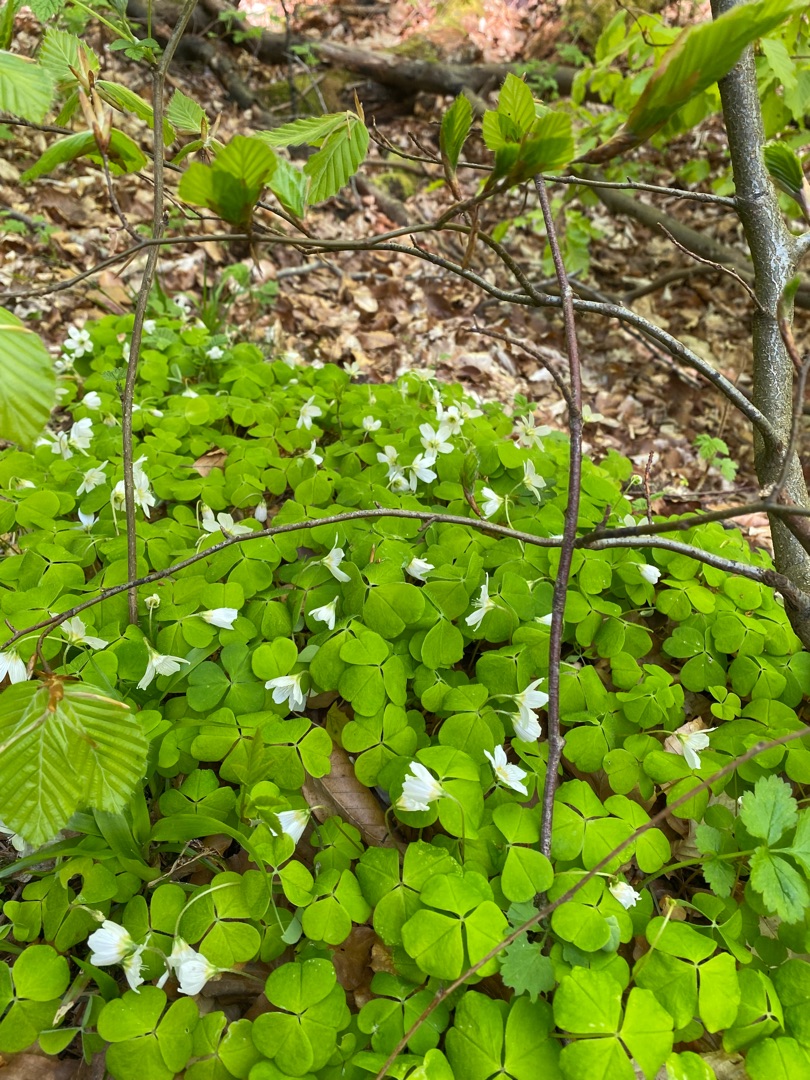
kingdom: Plantae
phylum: Tracheophyta
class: Magnoliopsida
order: Oxalidales
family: Oxalidaceae
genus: Oxalis
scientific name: Oxalis acetosella
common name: Skovsyre
